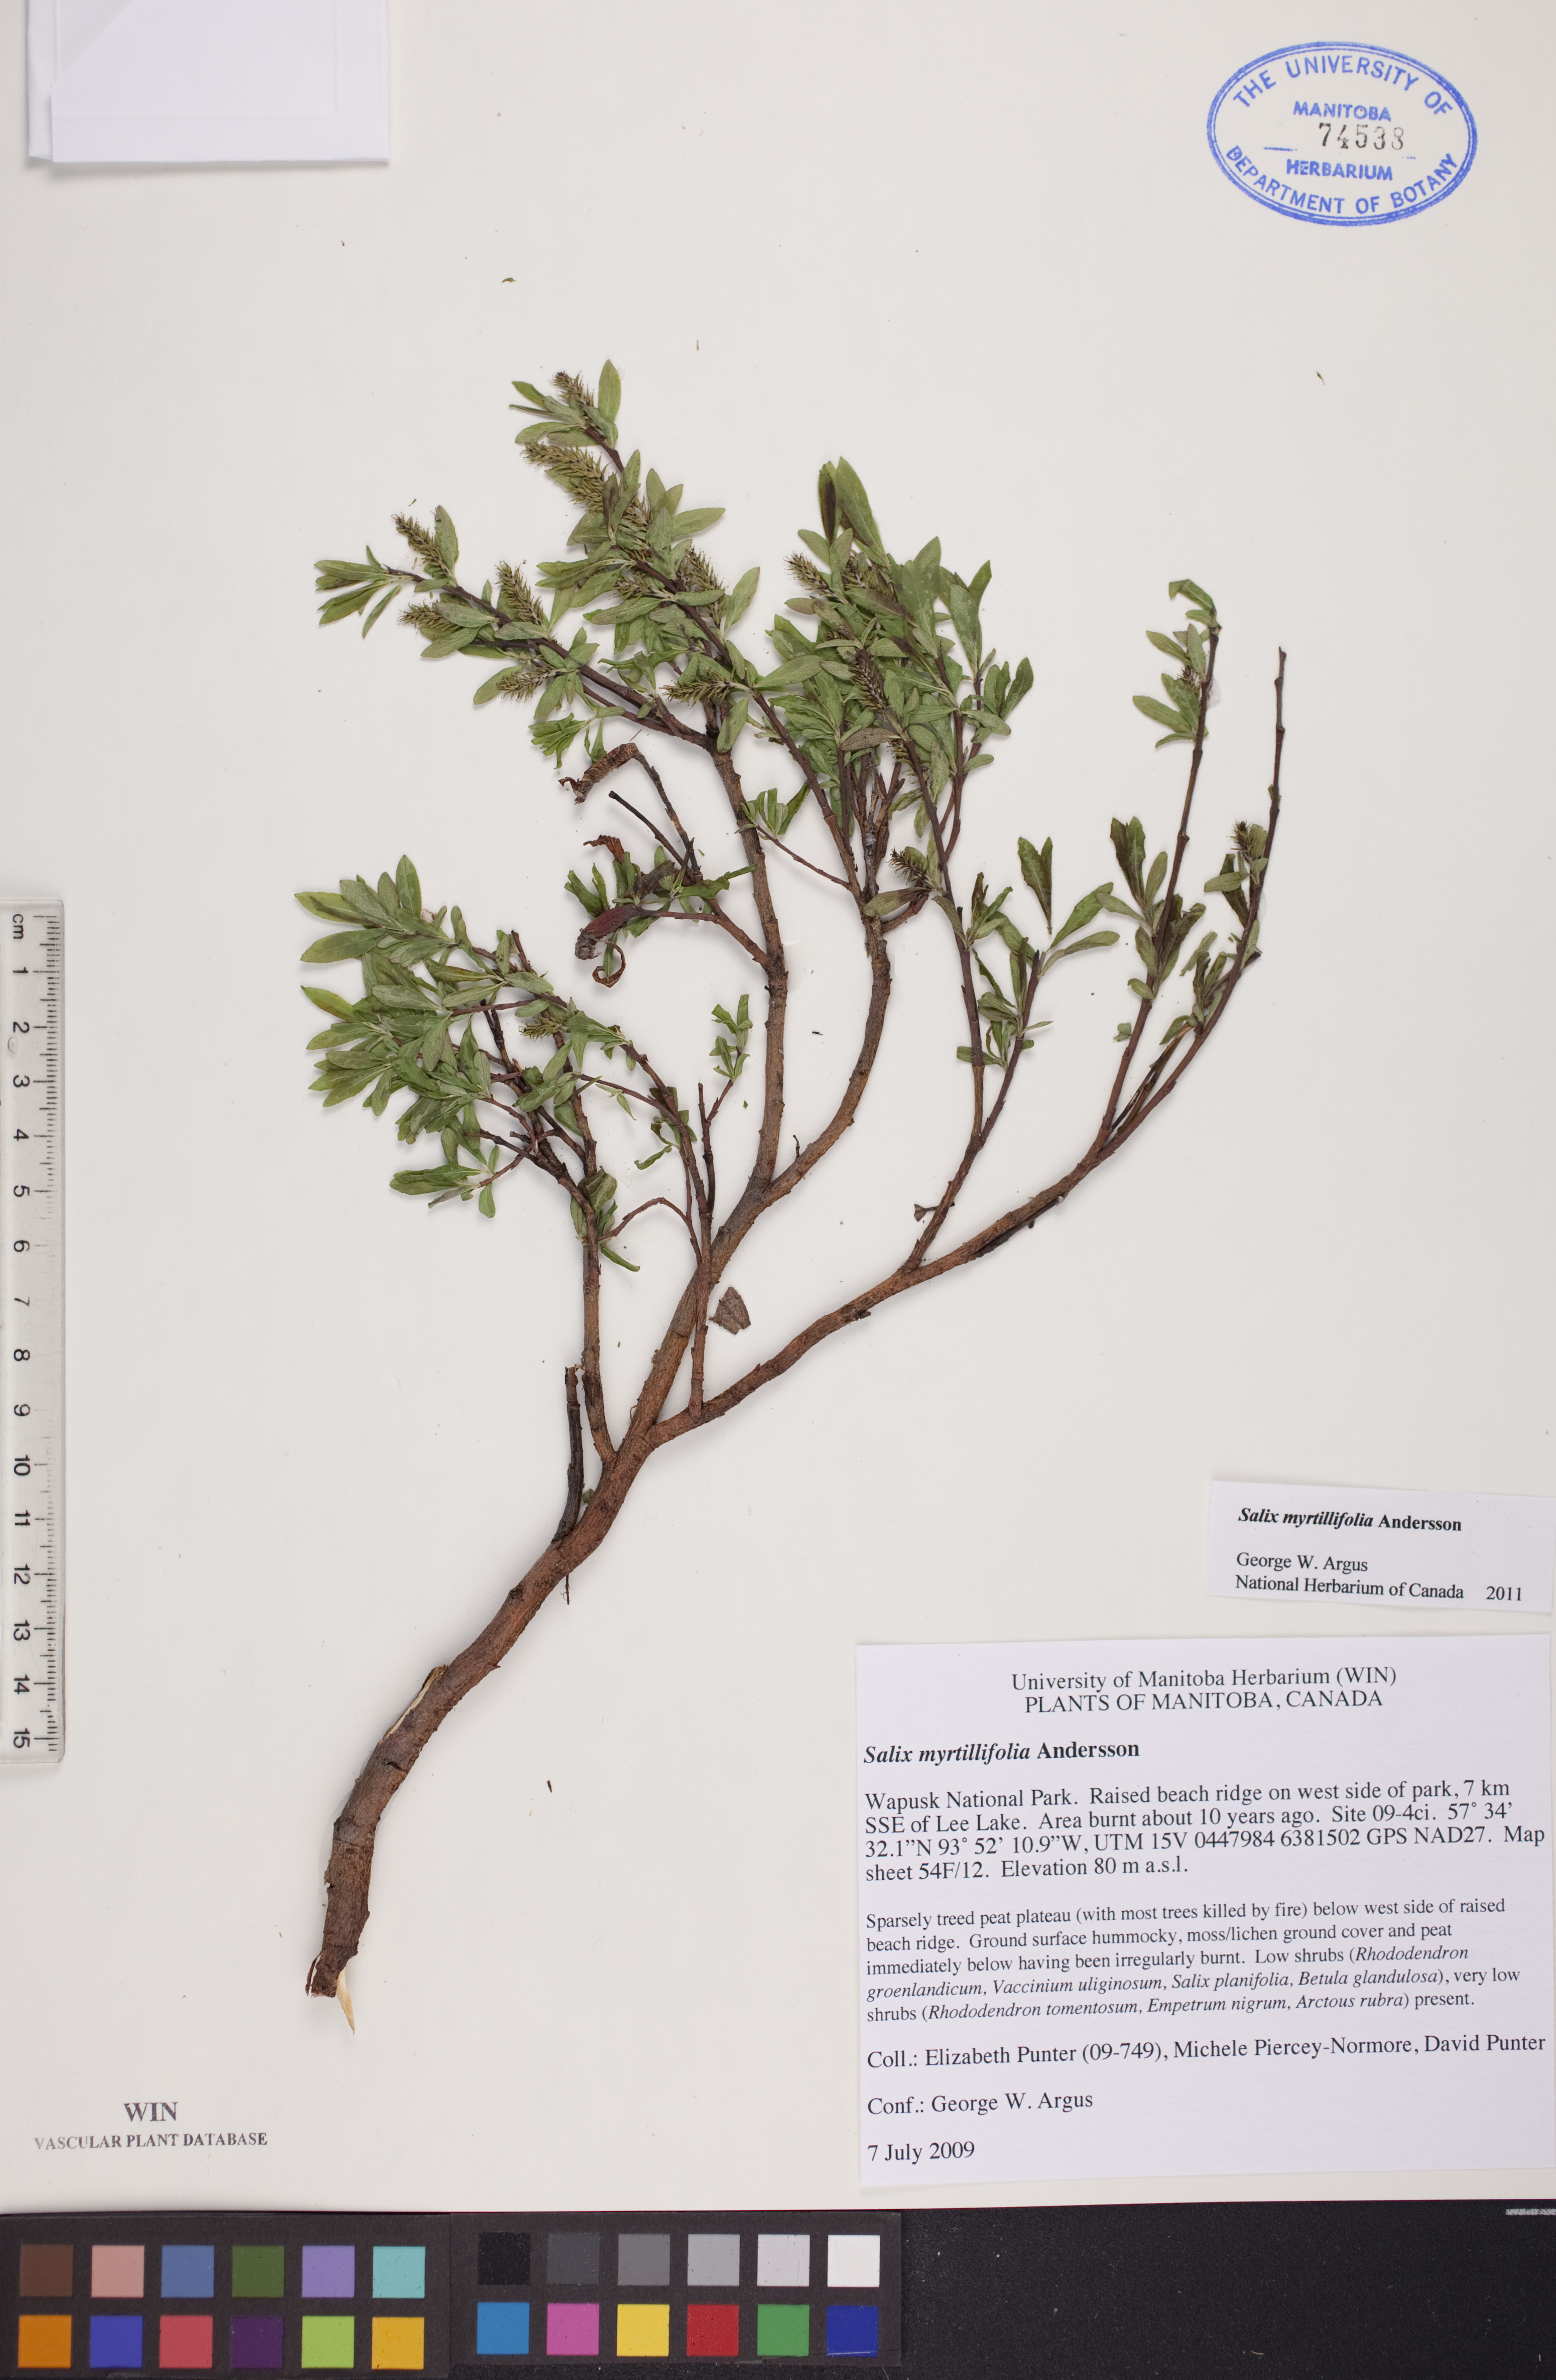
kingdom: Plantae
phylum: Tracheophyta
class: Magnoliopsida
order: Malpighiales
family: Salicaceae
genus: Salix
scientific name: Salix myrtillifolia
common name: Bilberry willow
